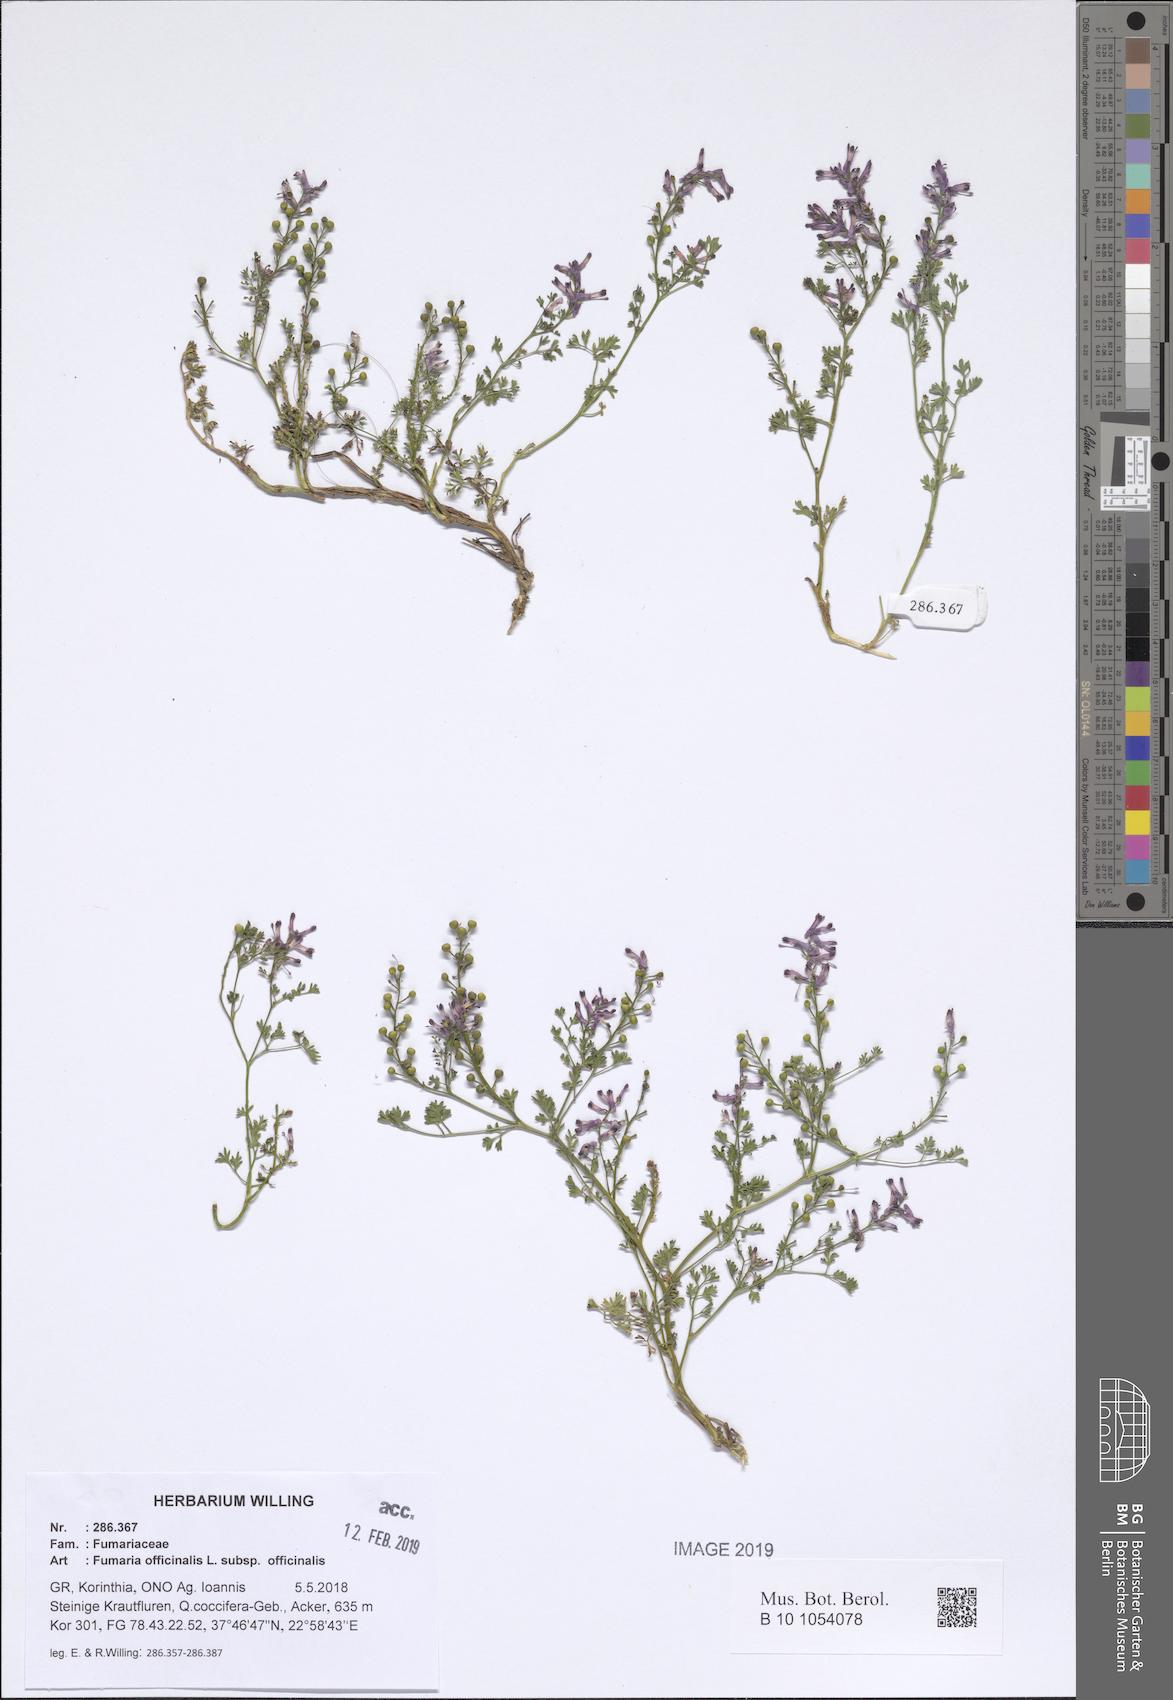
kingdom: Plantae
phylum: Tracheophyta
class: Magnoliopsida
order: Ranunculales
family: Papaveraceae
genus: Fumaria
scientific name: Fumaria officinalis
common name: Common fumitory
